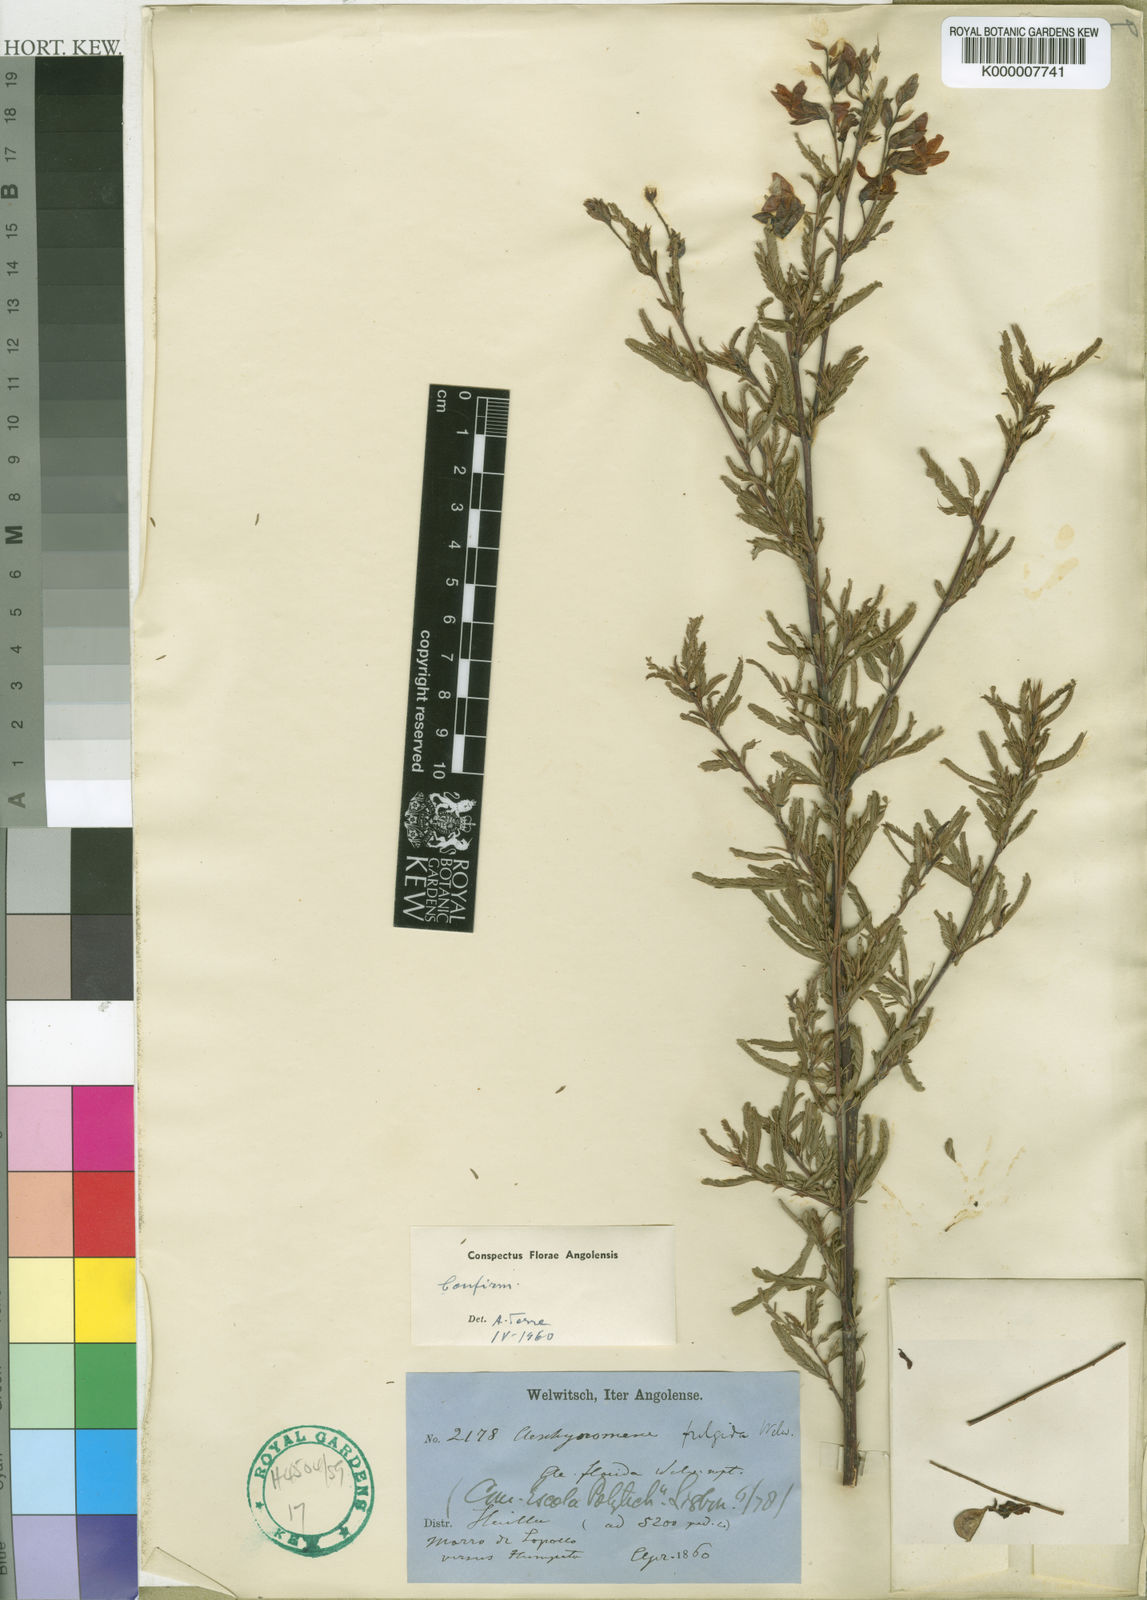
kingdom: Plantae
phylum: Tracheophyta
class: Magnoliopsida
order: Fabales
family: Fabaceae
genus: Aeschynomene
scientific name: Aeschynomene fulgida
